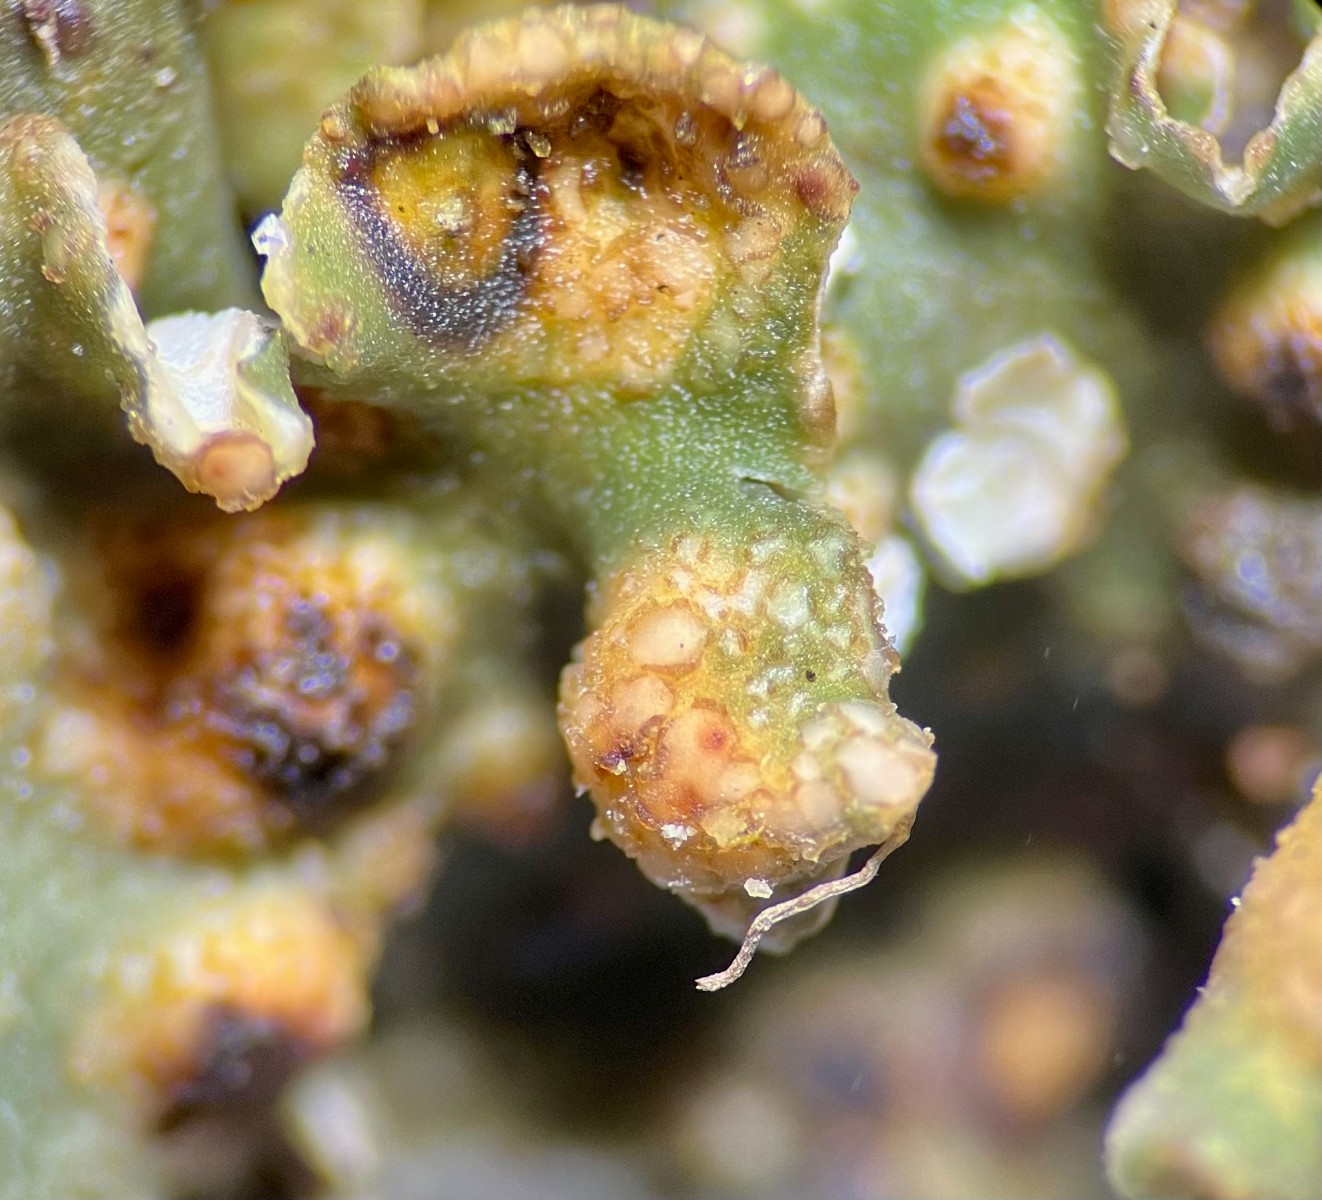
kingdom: Fungi
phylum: Ascomycota
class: Lecanoromycetes
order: Ostropales
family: Gomphillaceae
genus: Corticifraga
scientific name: Corticifraga fuckelii
